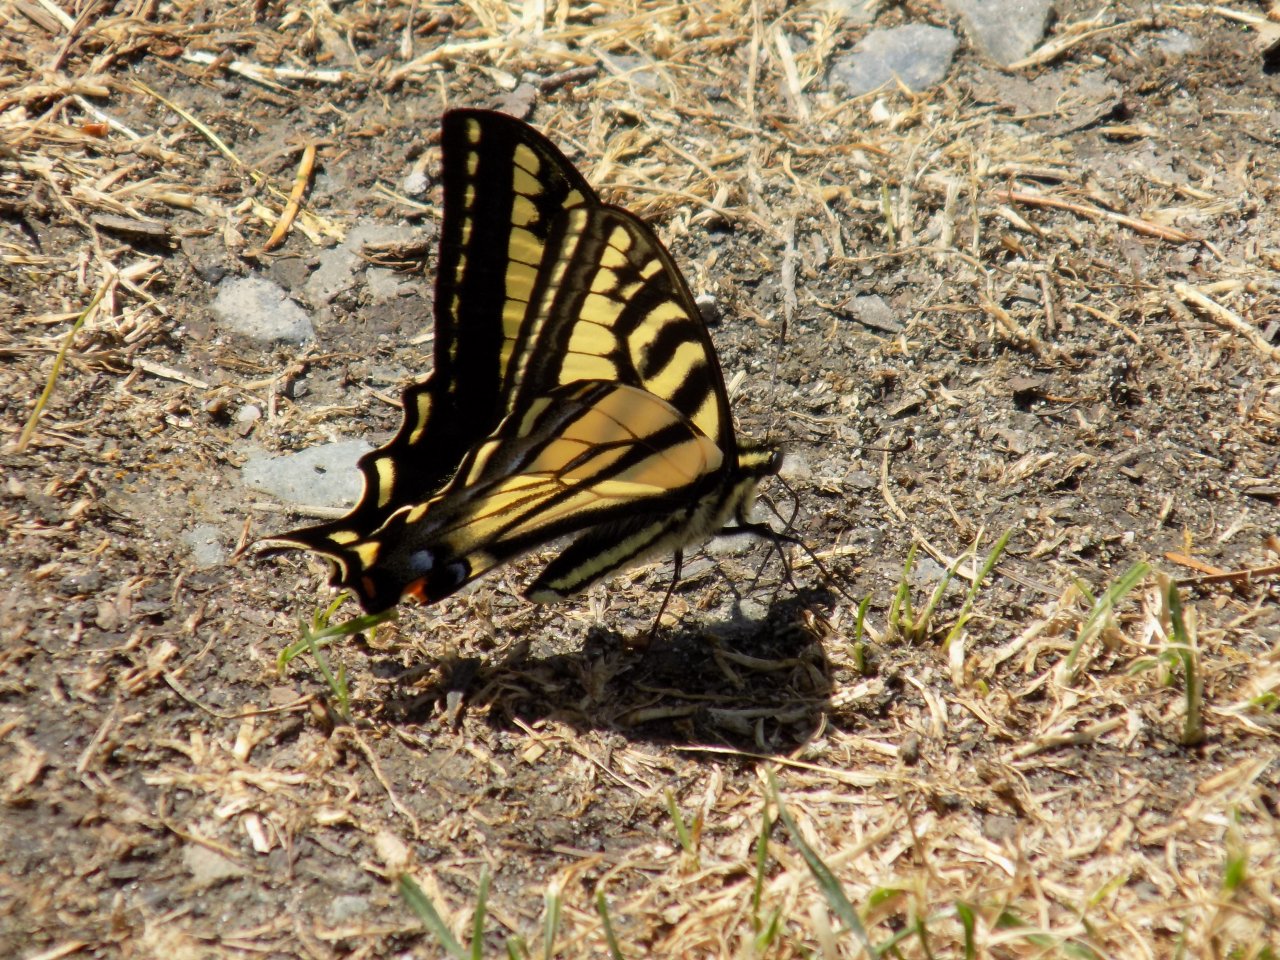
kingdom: Animalia
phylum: Arthropoda
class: Insecta
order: Lepidoptera
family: Papilionidae
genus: Pterourus
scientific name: Pterourus rutulus
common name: Western Tiger Swallowtail
